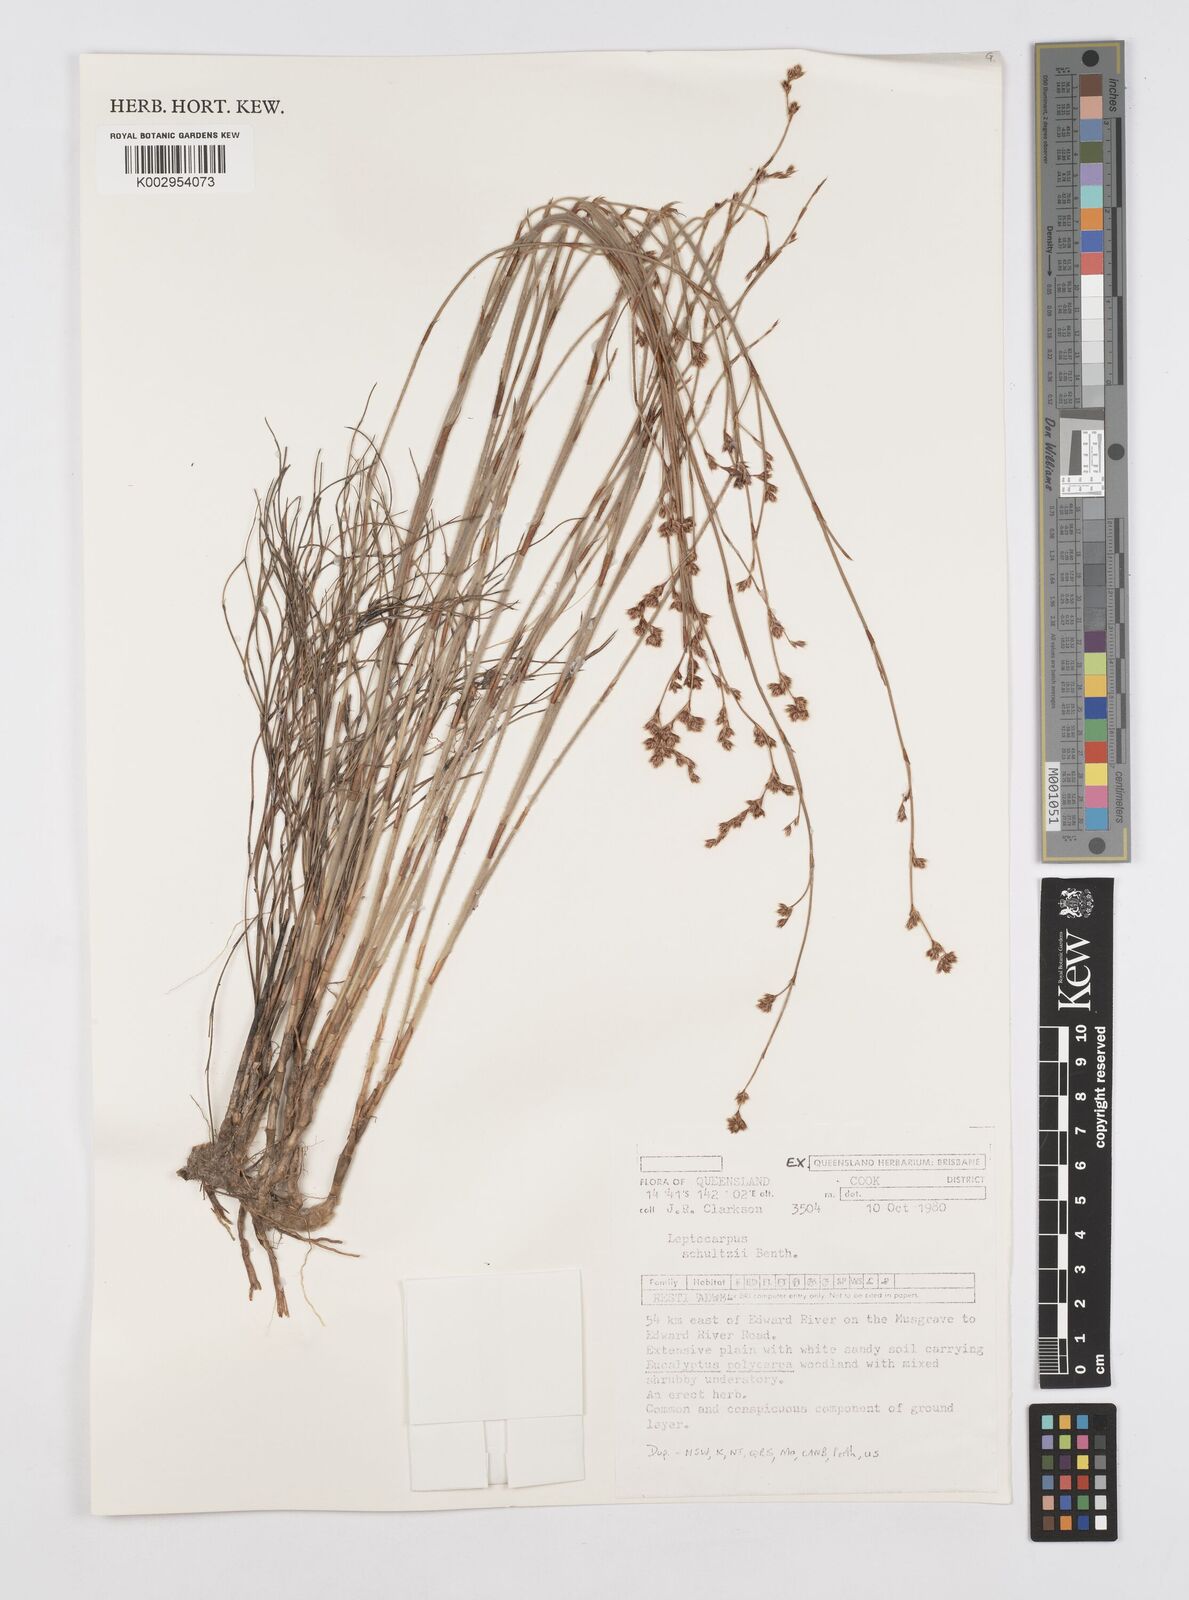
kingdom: Plantae
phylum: Tracheophyta
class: Liliopsida
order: Poales
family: Restionaceae
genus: Dapsilanthus
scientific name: Dapsilanthus spathaceus
